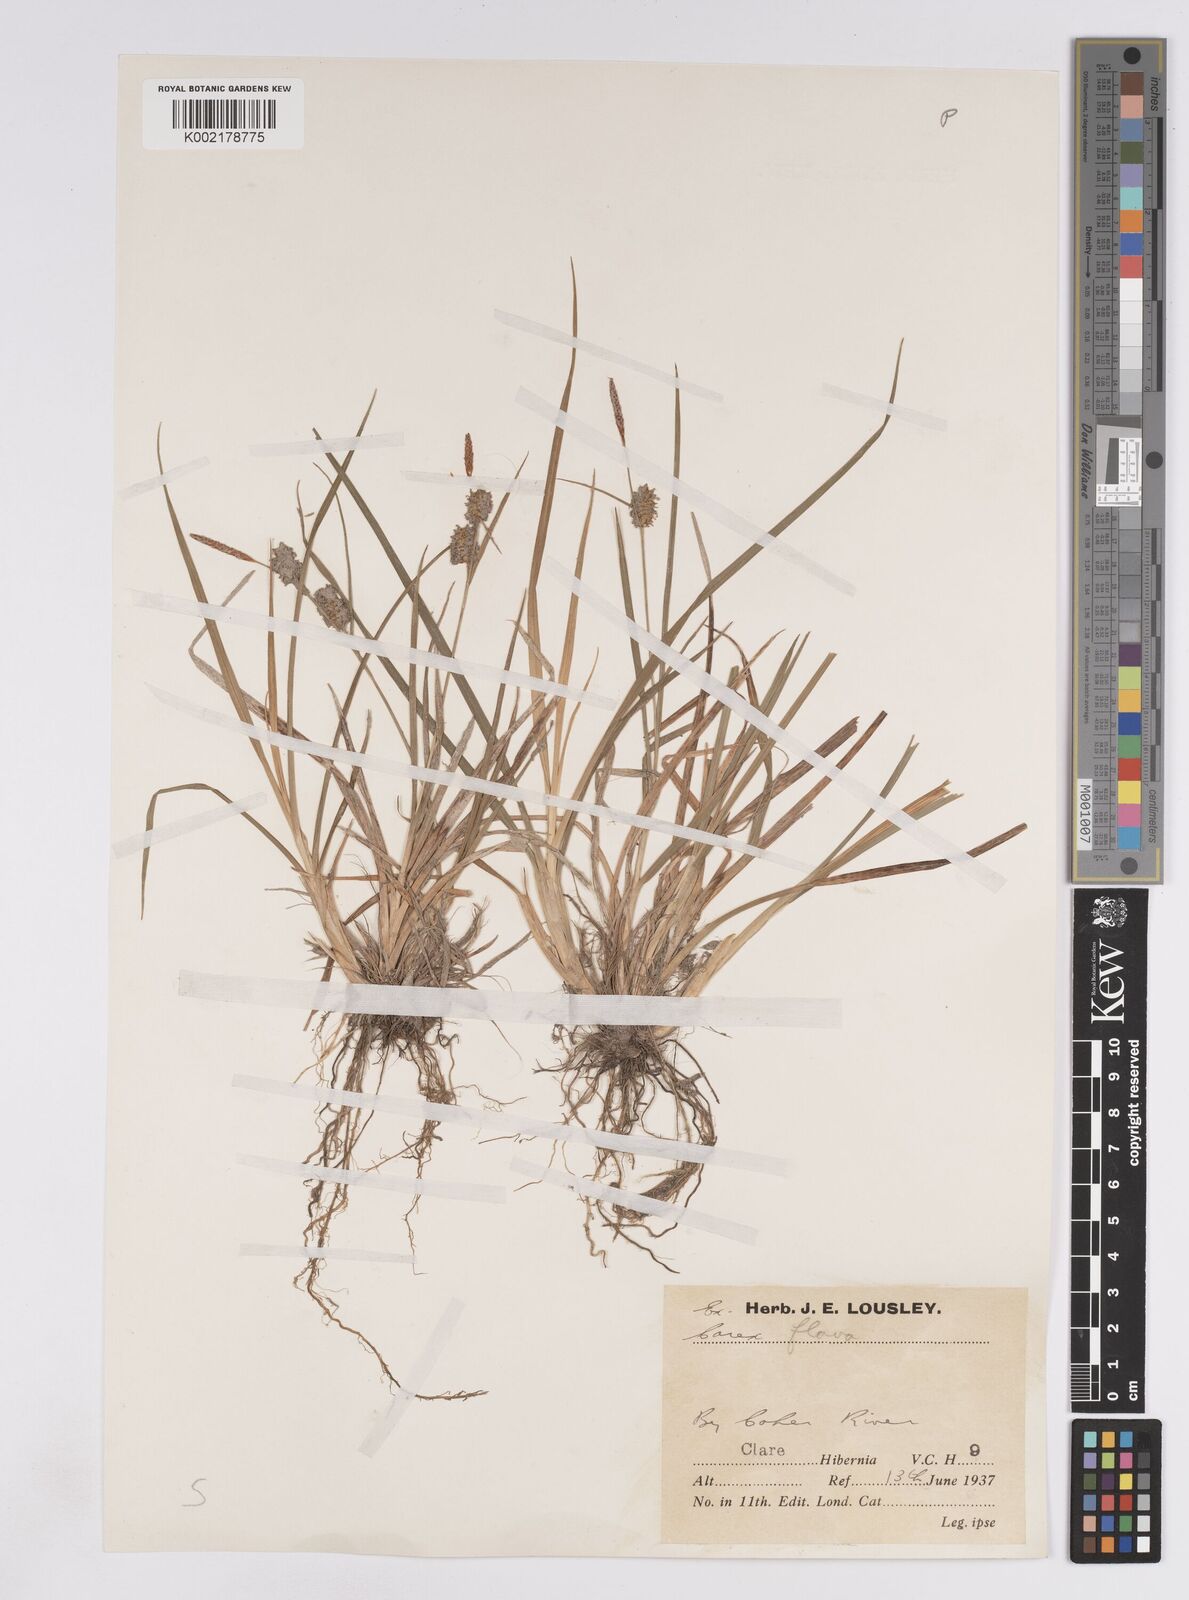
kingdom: Plantae
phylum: Tracheophyta
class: Liliopsida
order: Poales
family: Cyperaceae
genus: Carex
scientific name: Carex lepidocarpa
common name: Long-stalked yellow-sedge
